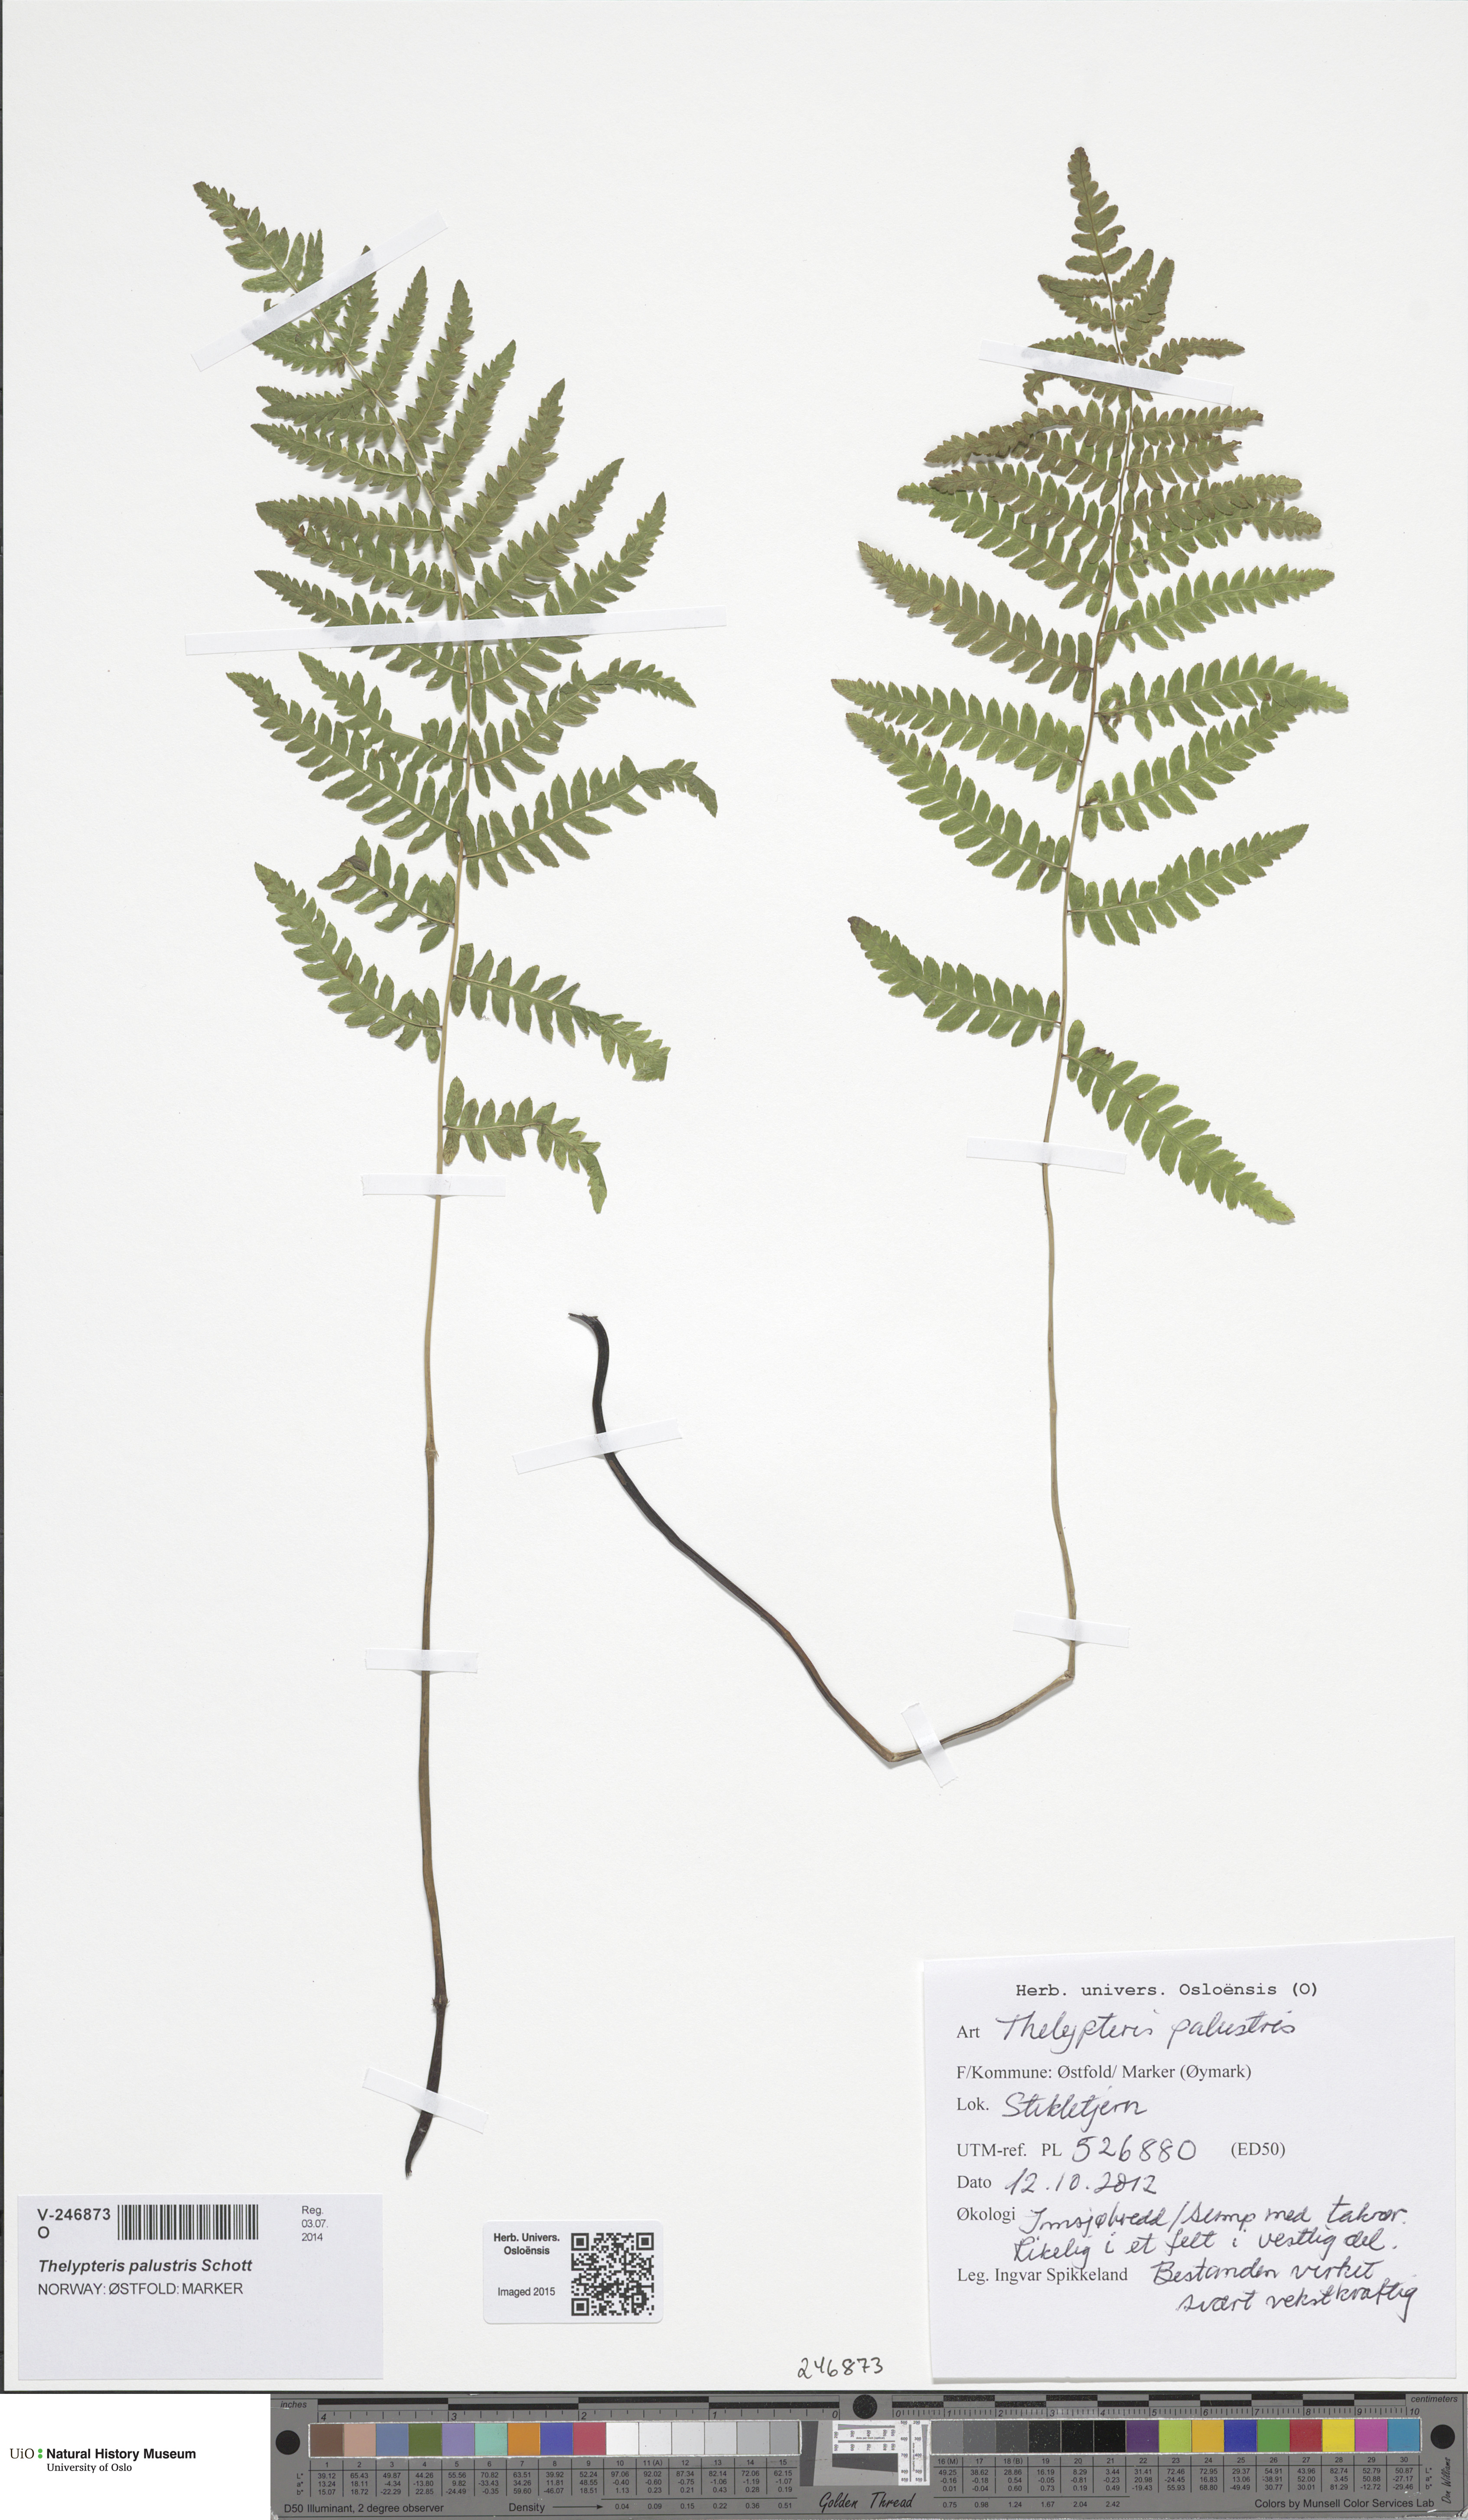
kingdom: Plantae
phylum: Tracheophyta
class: Polypodiopsida
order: Polypodiales
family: Thelypteridaceae
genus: Thelypteris
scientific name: Thelypteris palustris
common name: Marsh fern
